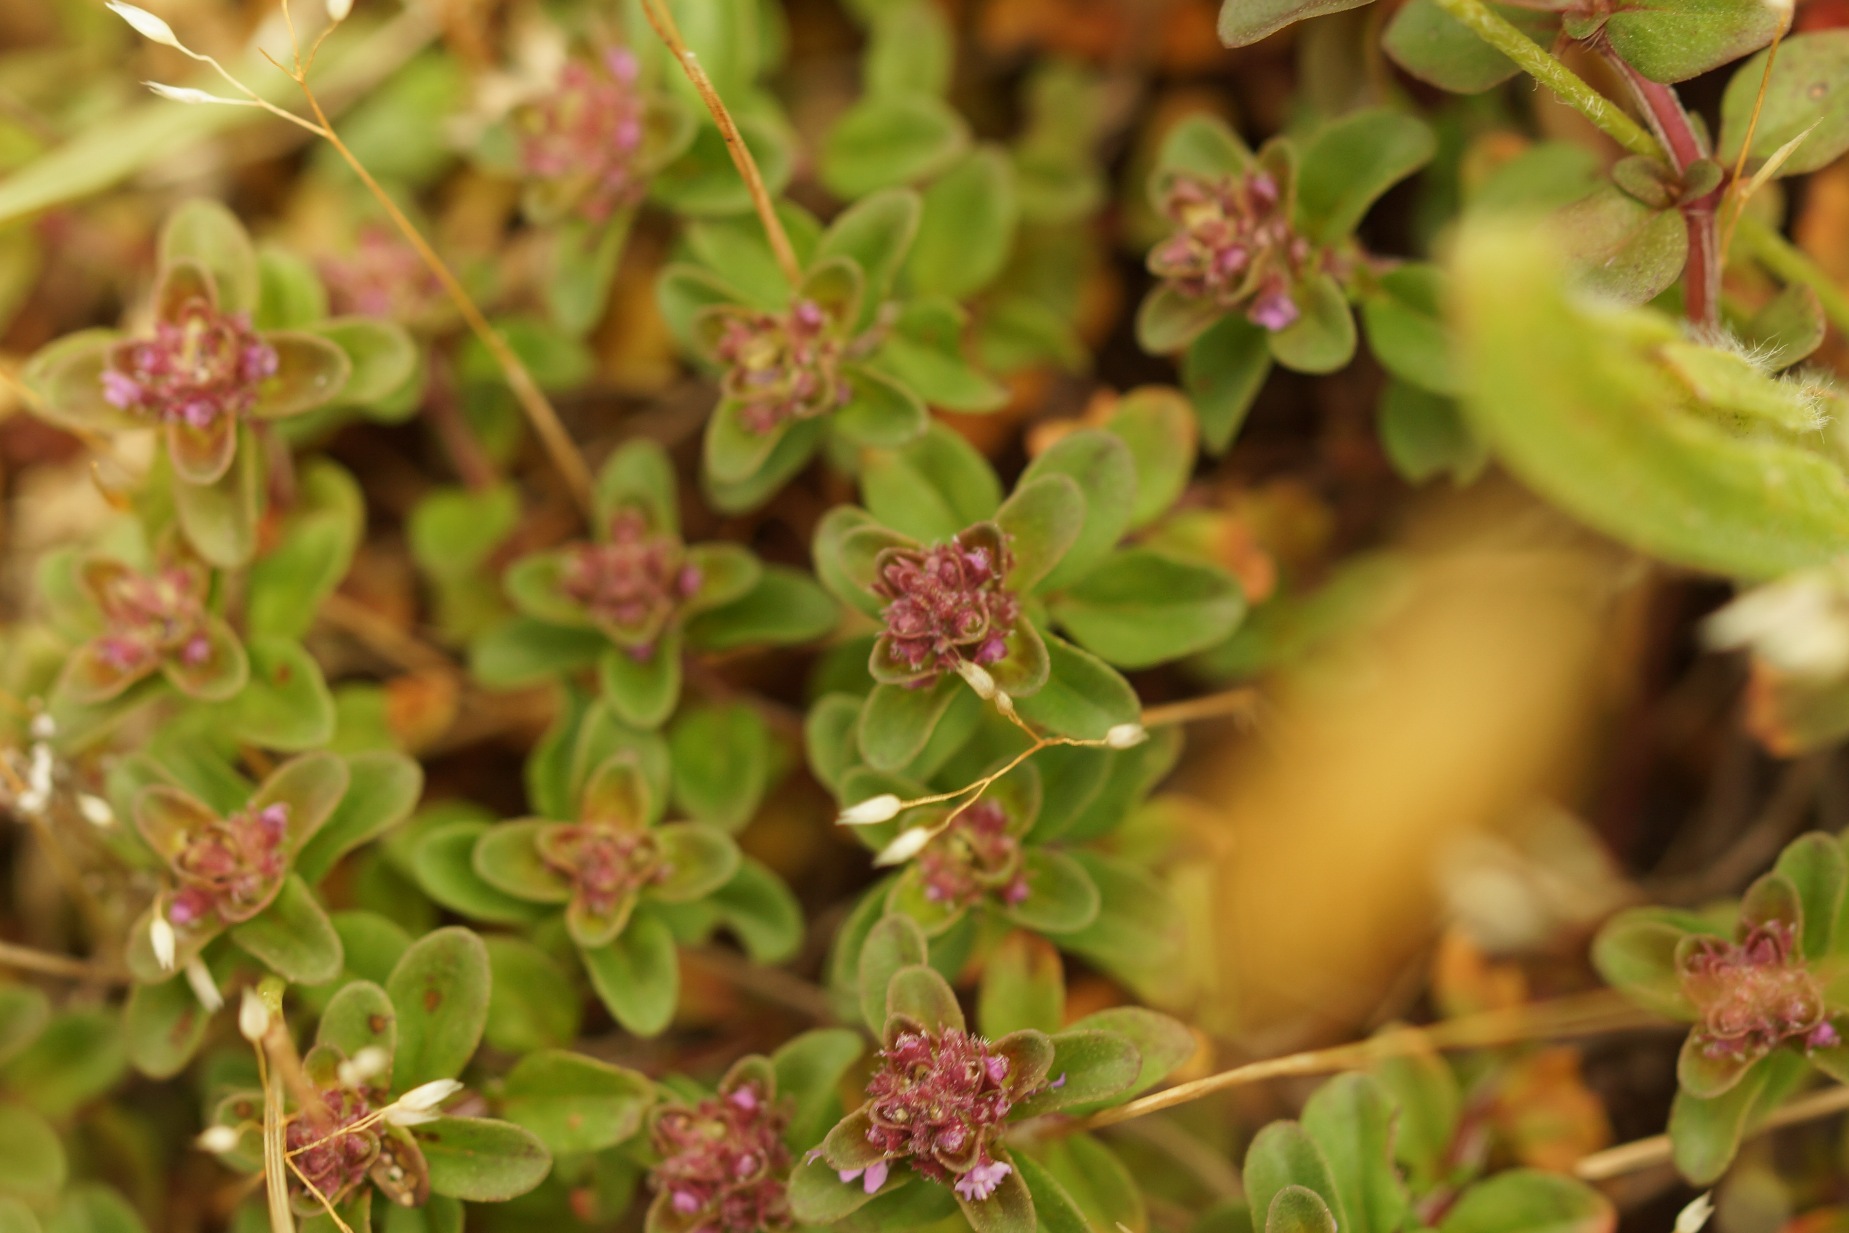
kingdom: Plantae
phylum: Tracheophyta
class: Magnoliopsida
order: Lamiales
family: Lamiaceae
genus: Thymus
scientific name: Thymus pulegioides
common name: Bredbladet timian
